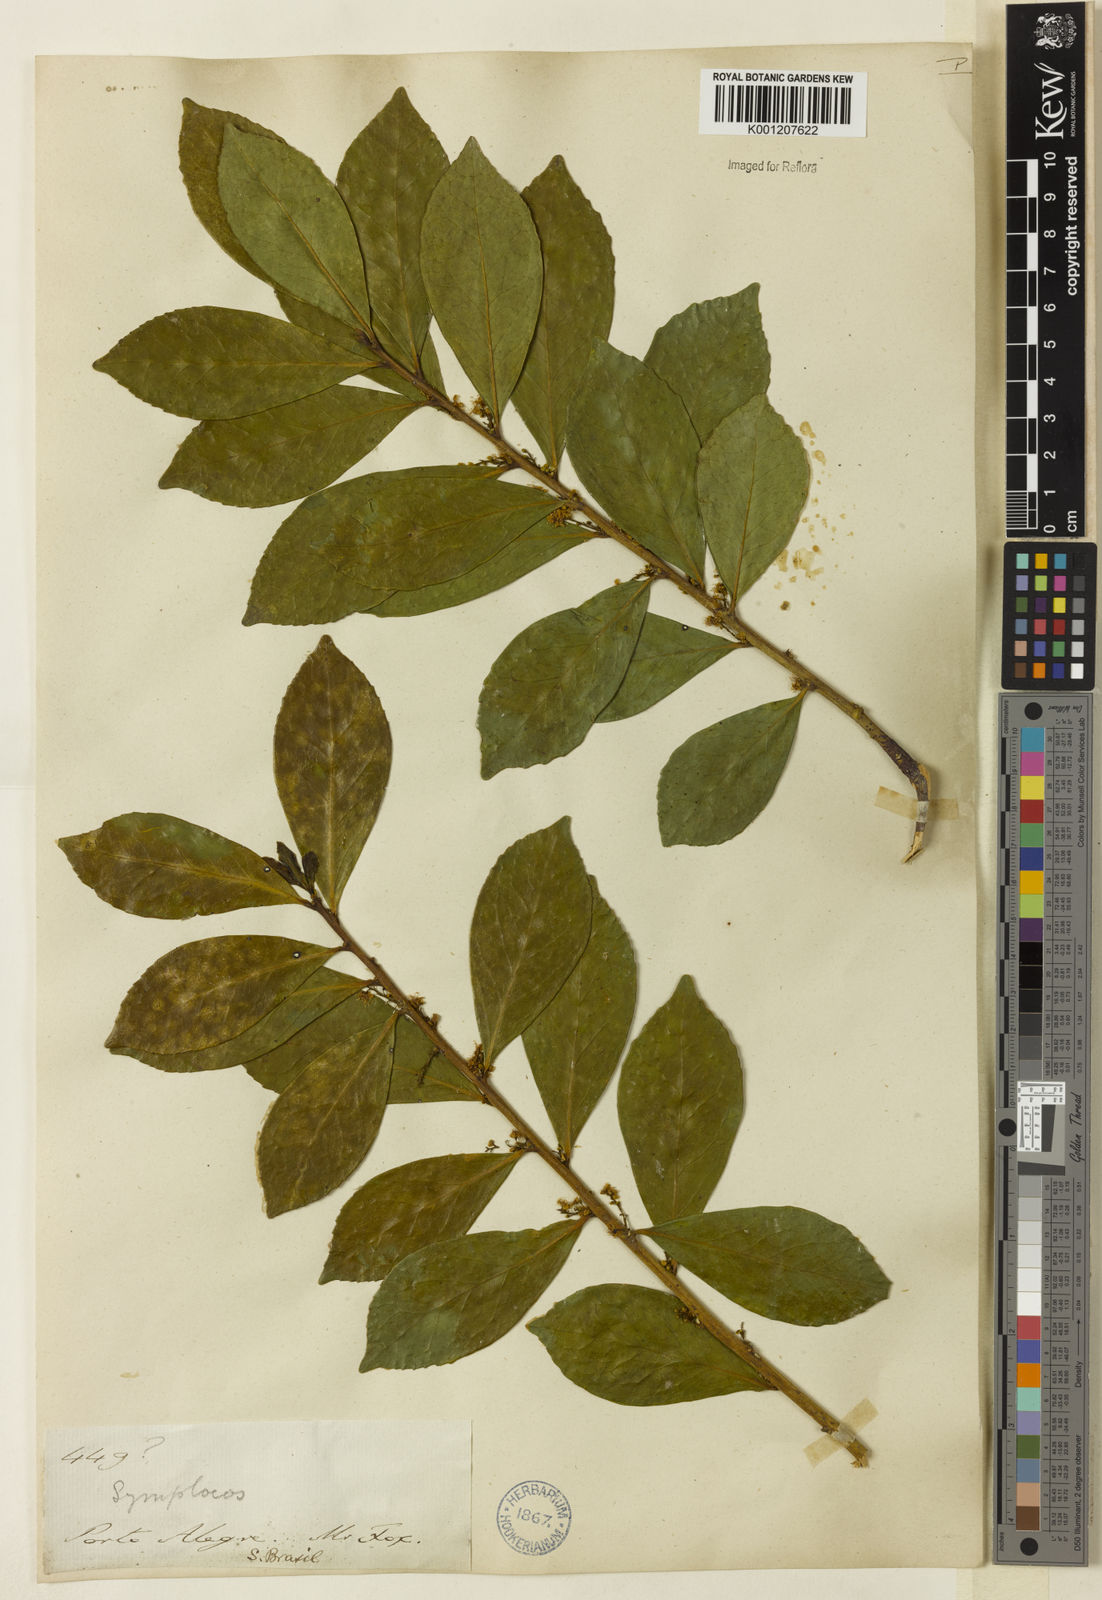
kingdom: Plantae
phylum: Tracheophyta
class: Magnoliopsida
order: Ericales
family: Symplocaceae
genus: Symplocos
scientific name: Symplocos tetrandra
